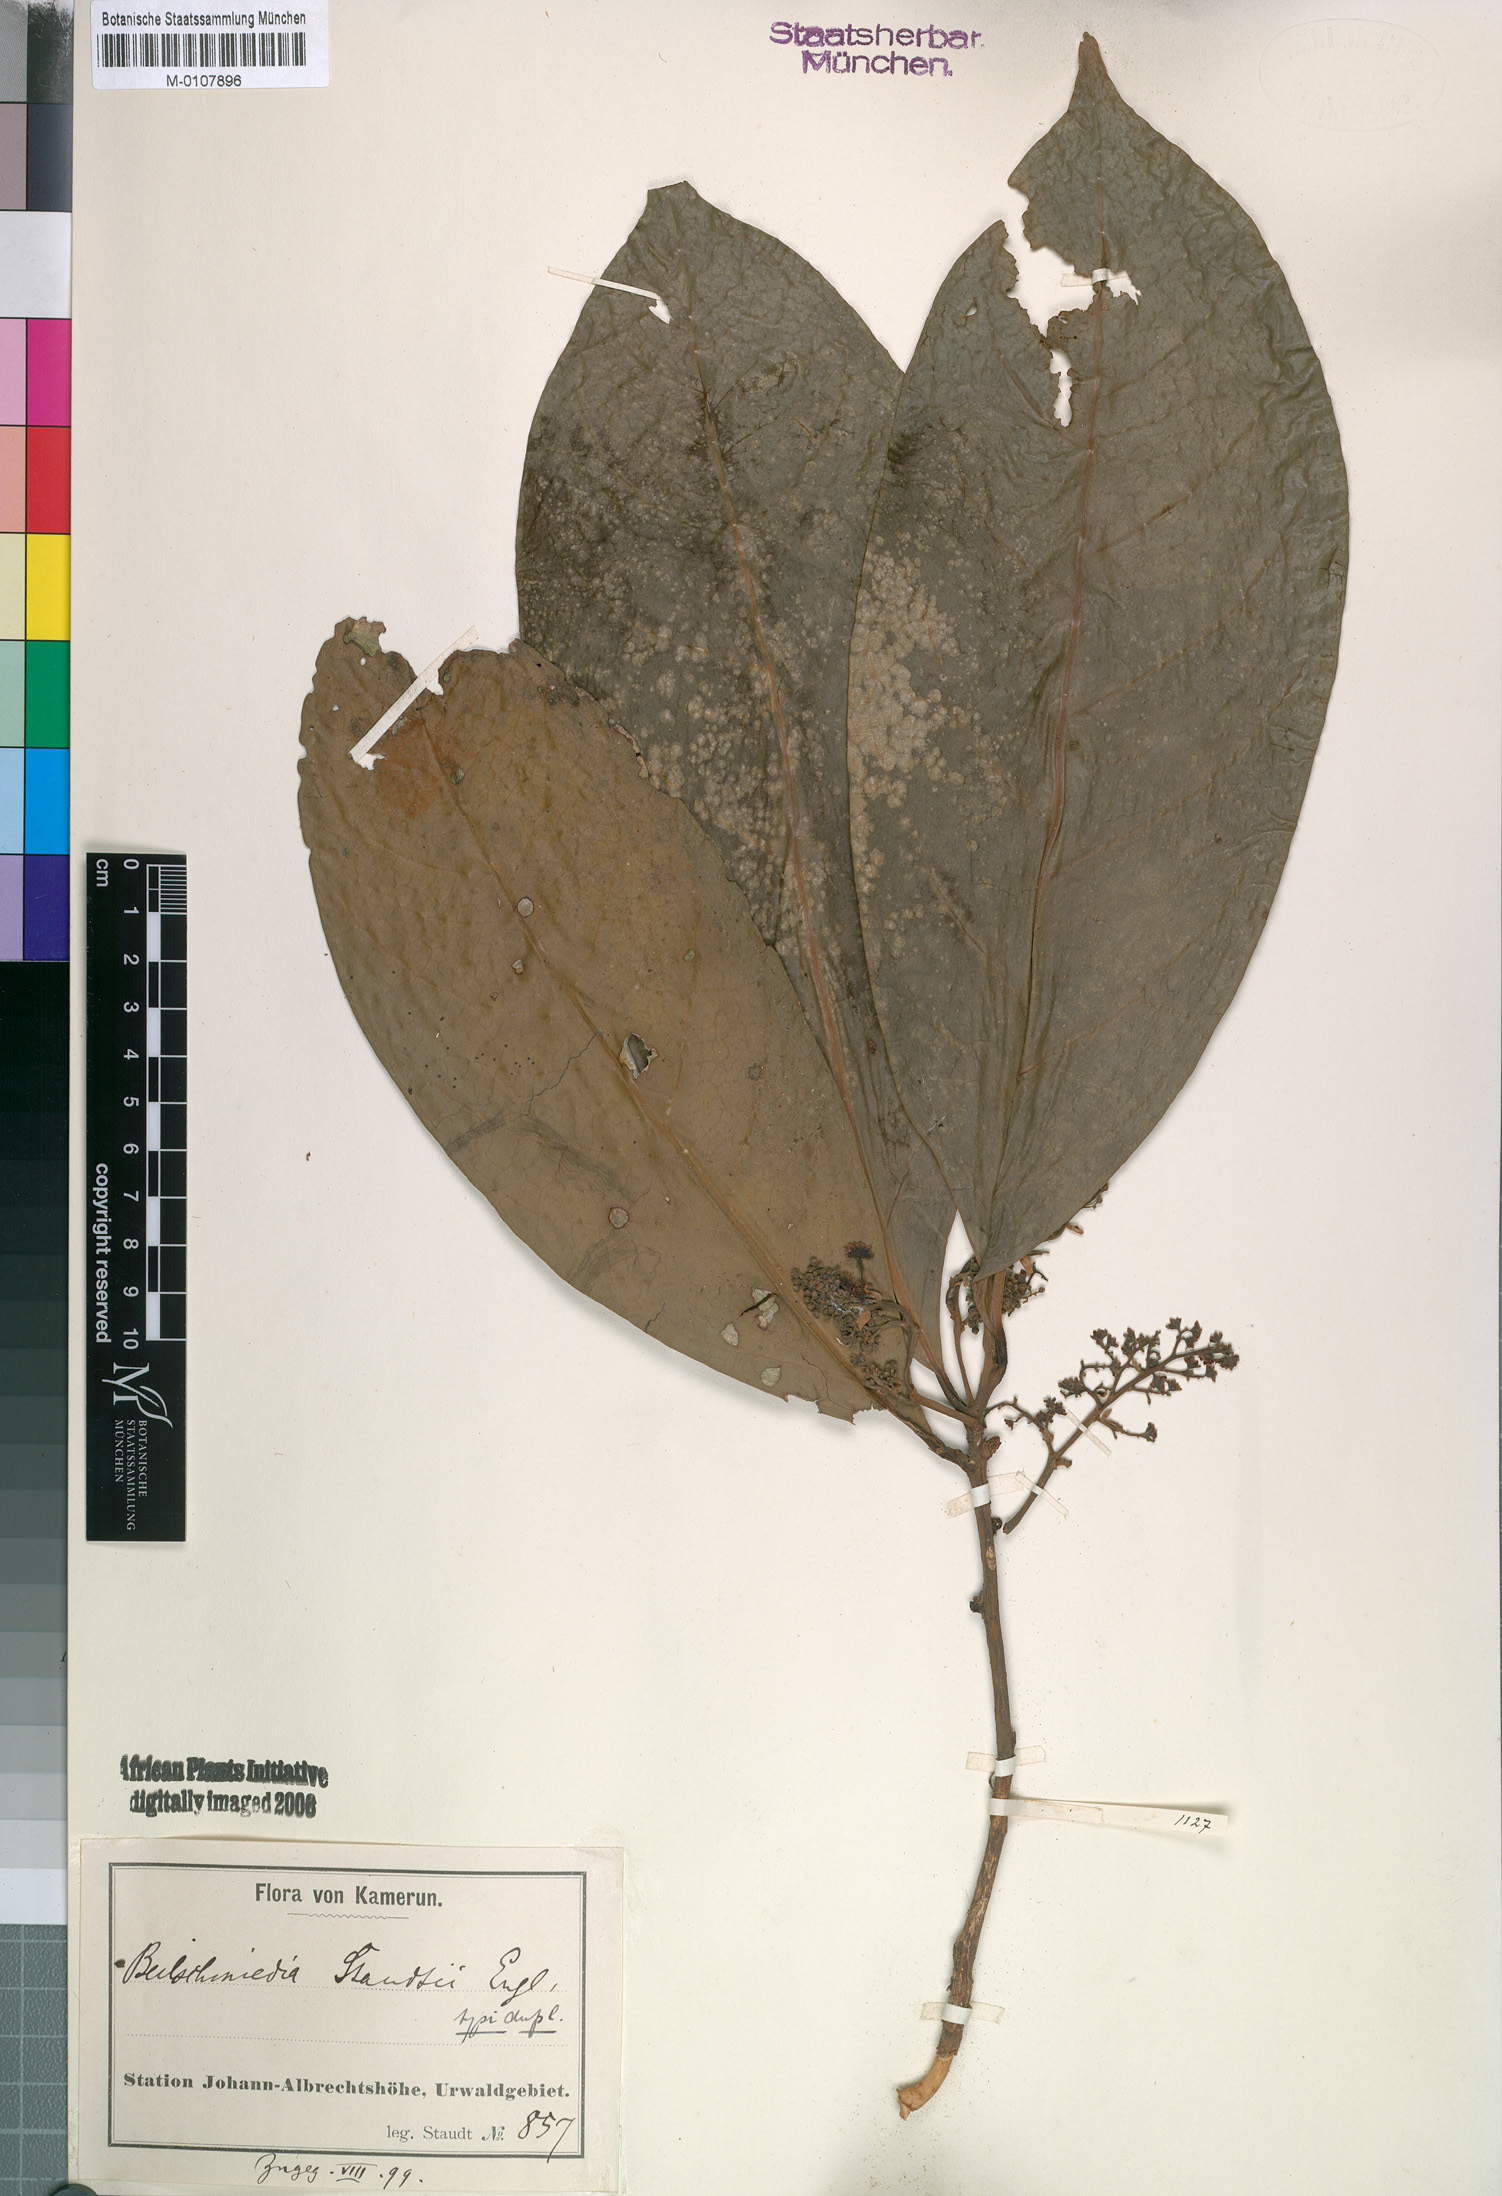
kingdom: Plantae
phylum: Tracheophyta
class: Magnoliopsida
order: Laurales
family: Lauraceae
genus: Beilschmiedia
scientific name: Beilschmiedia staudtii
